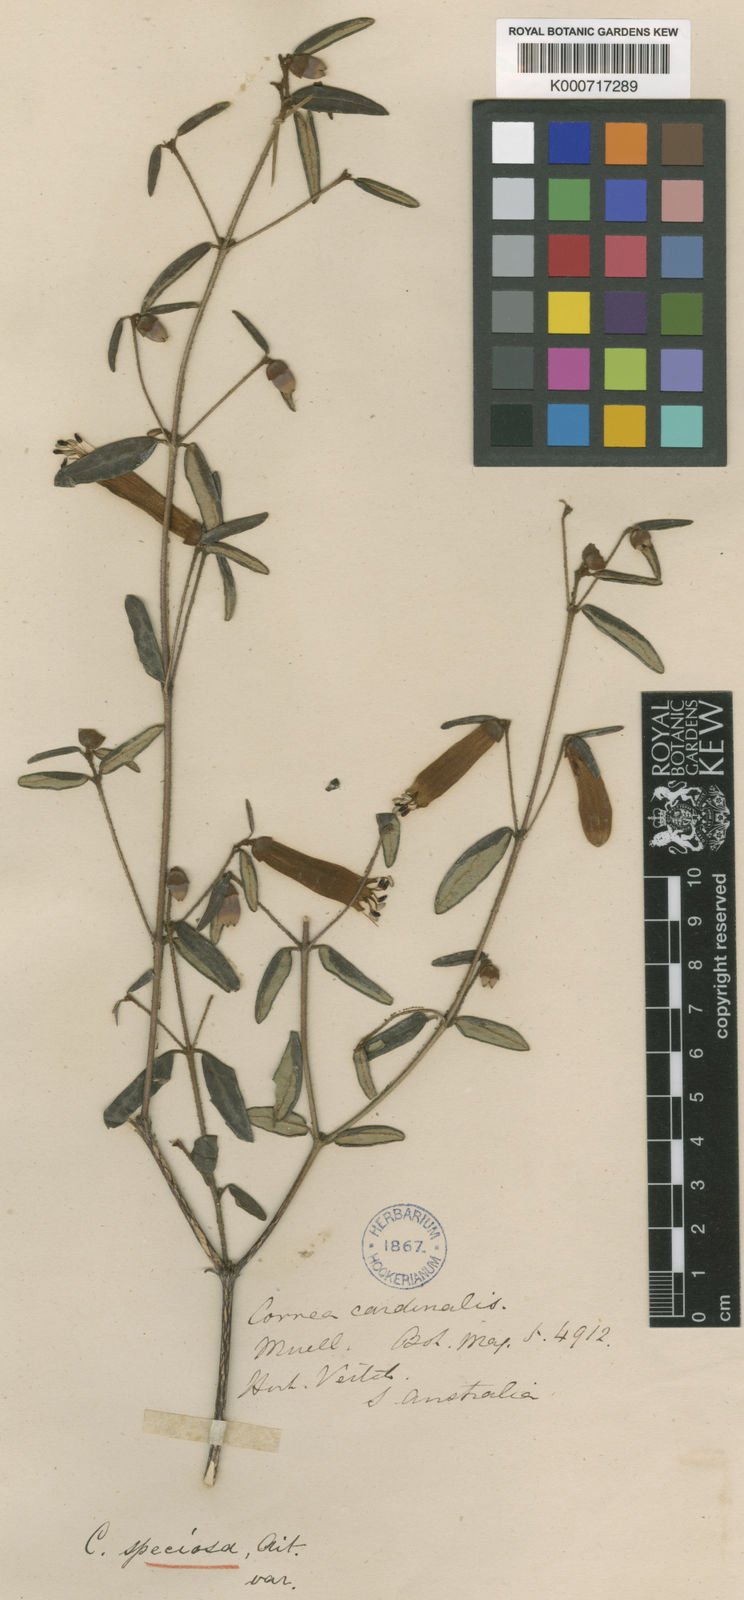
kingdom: Plantae
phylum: Tracheophyta
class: Magnoliopsida
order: Sapindales
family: Rutaceae
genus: Correa
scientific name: Correa reflexa
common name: Common correa
